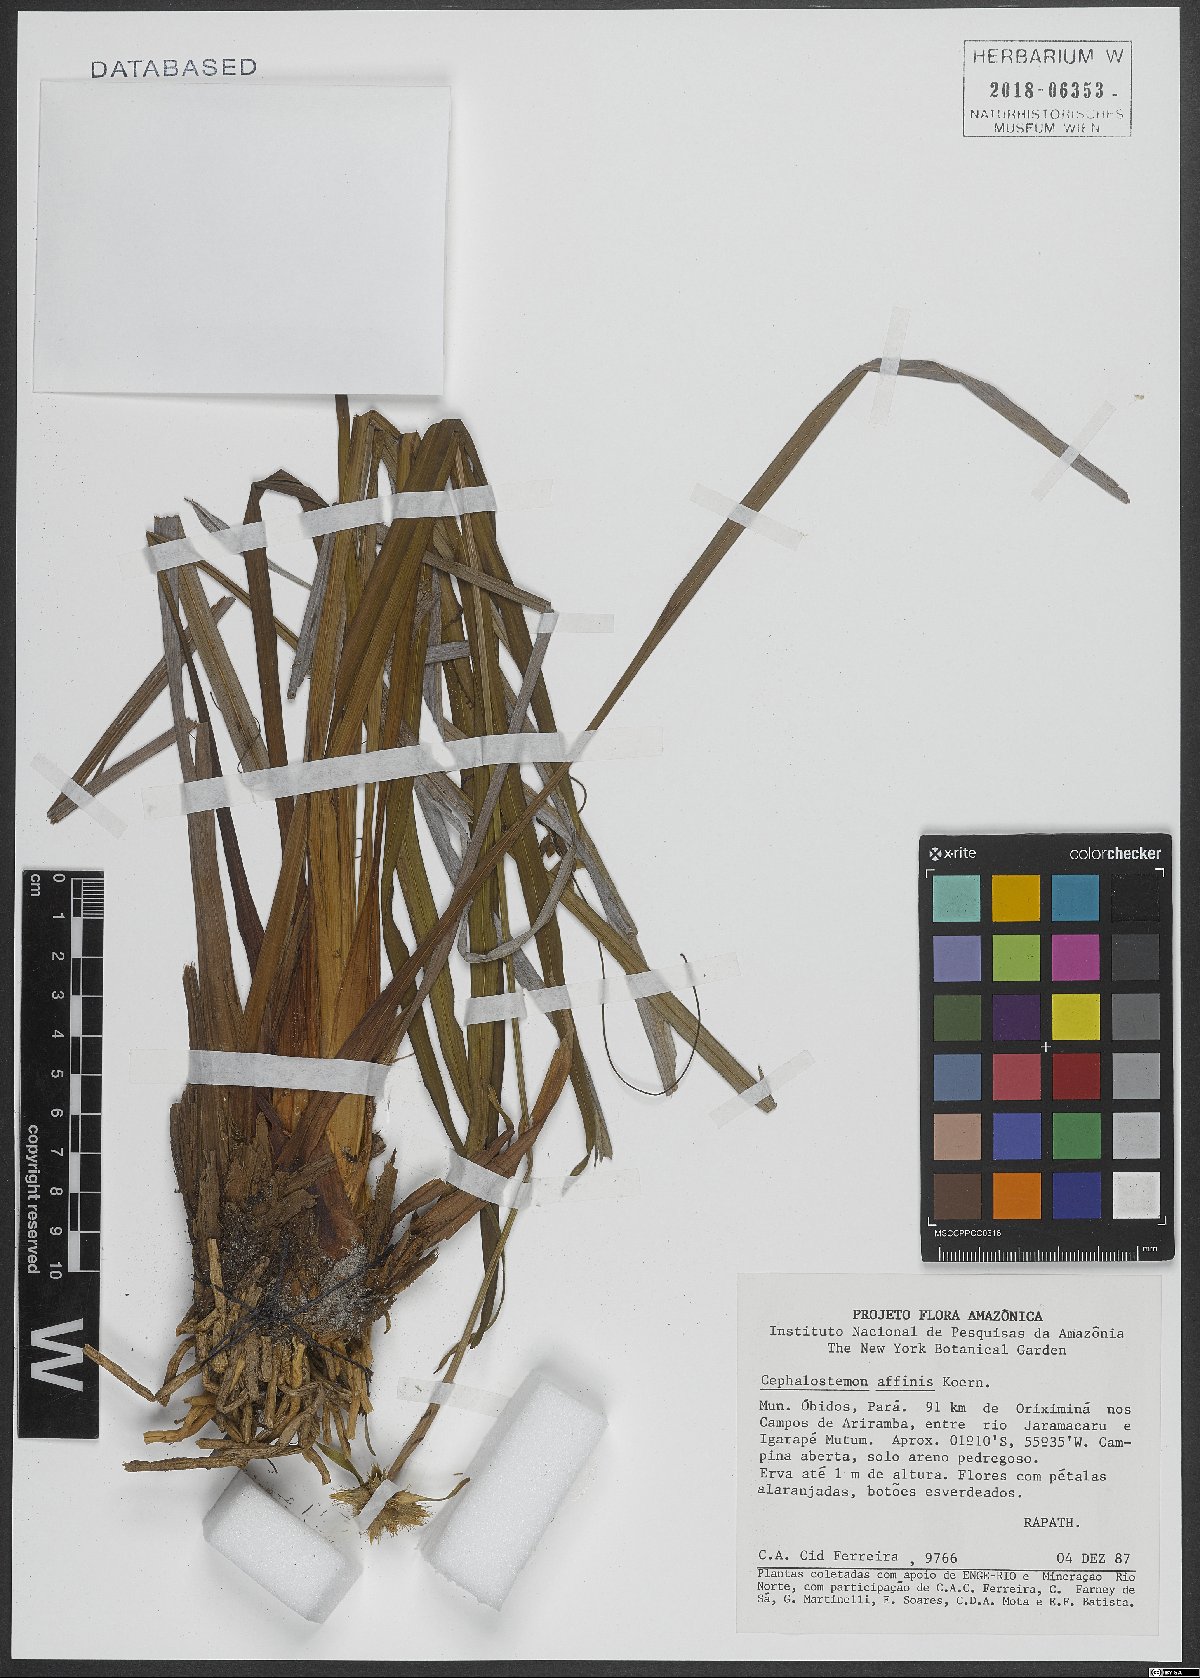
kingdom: Plantae
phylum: Tracheophyta
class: Liliopsida
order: Poales
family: Rapateaceae
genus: Cephalostemon
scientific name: Cephalostemon affinis
